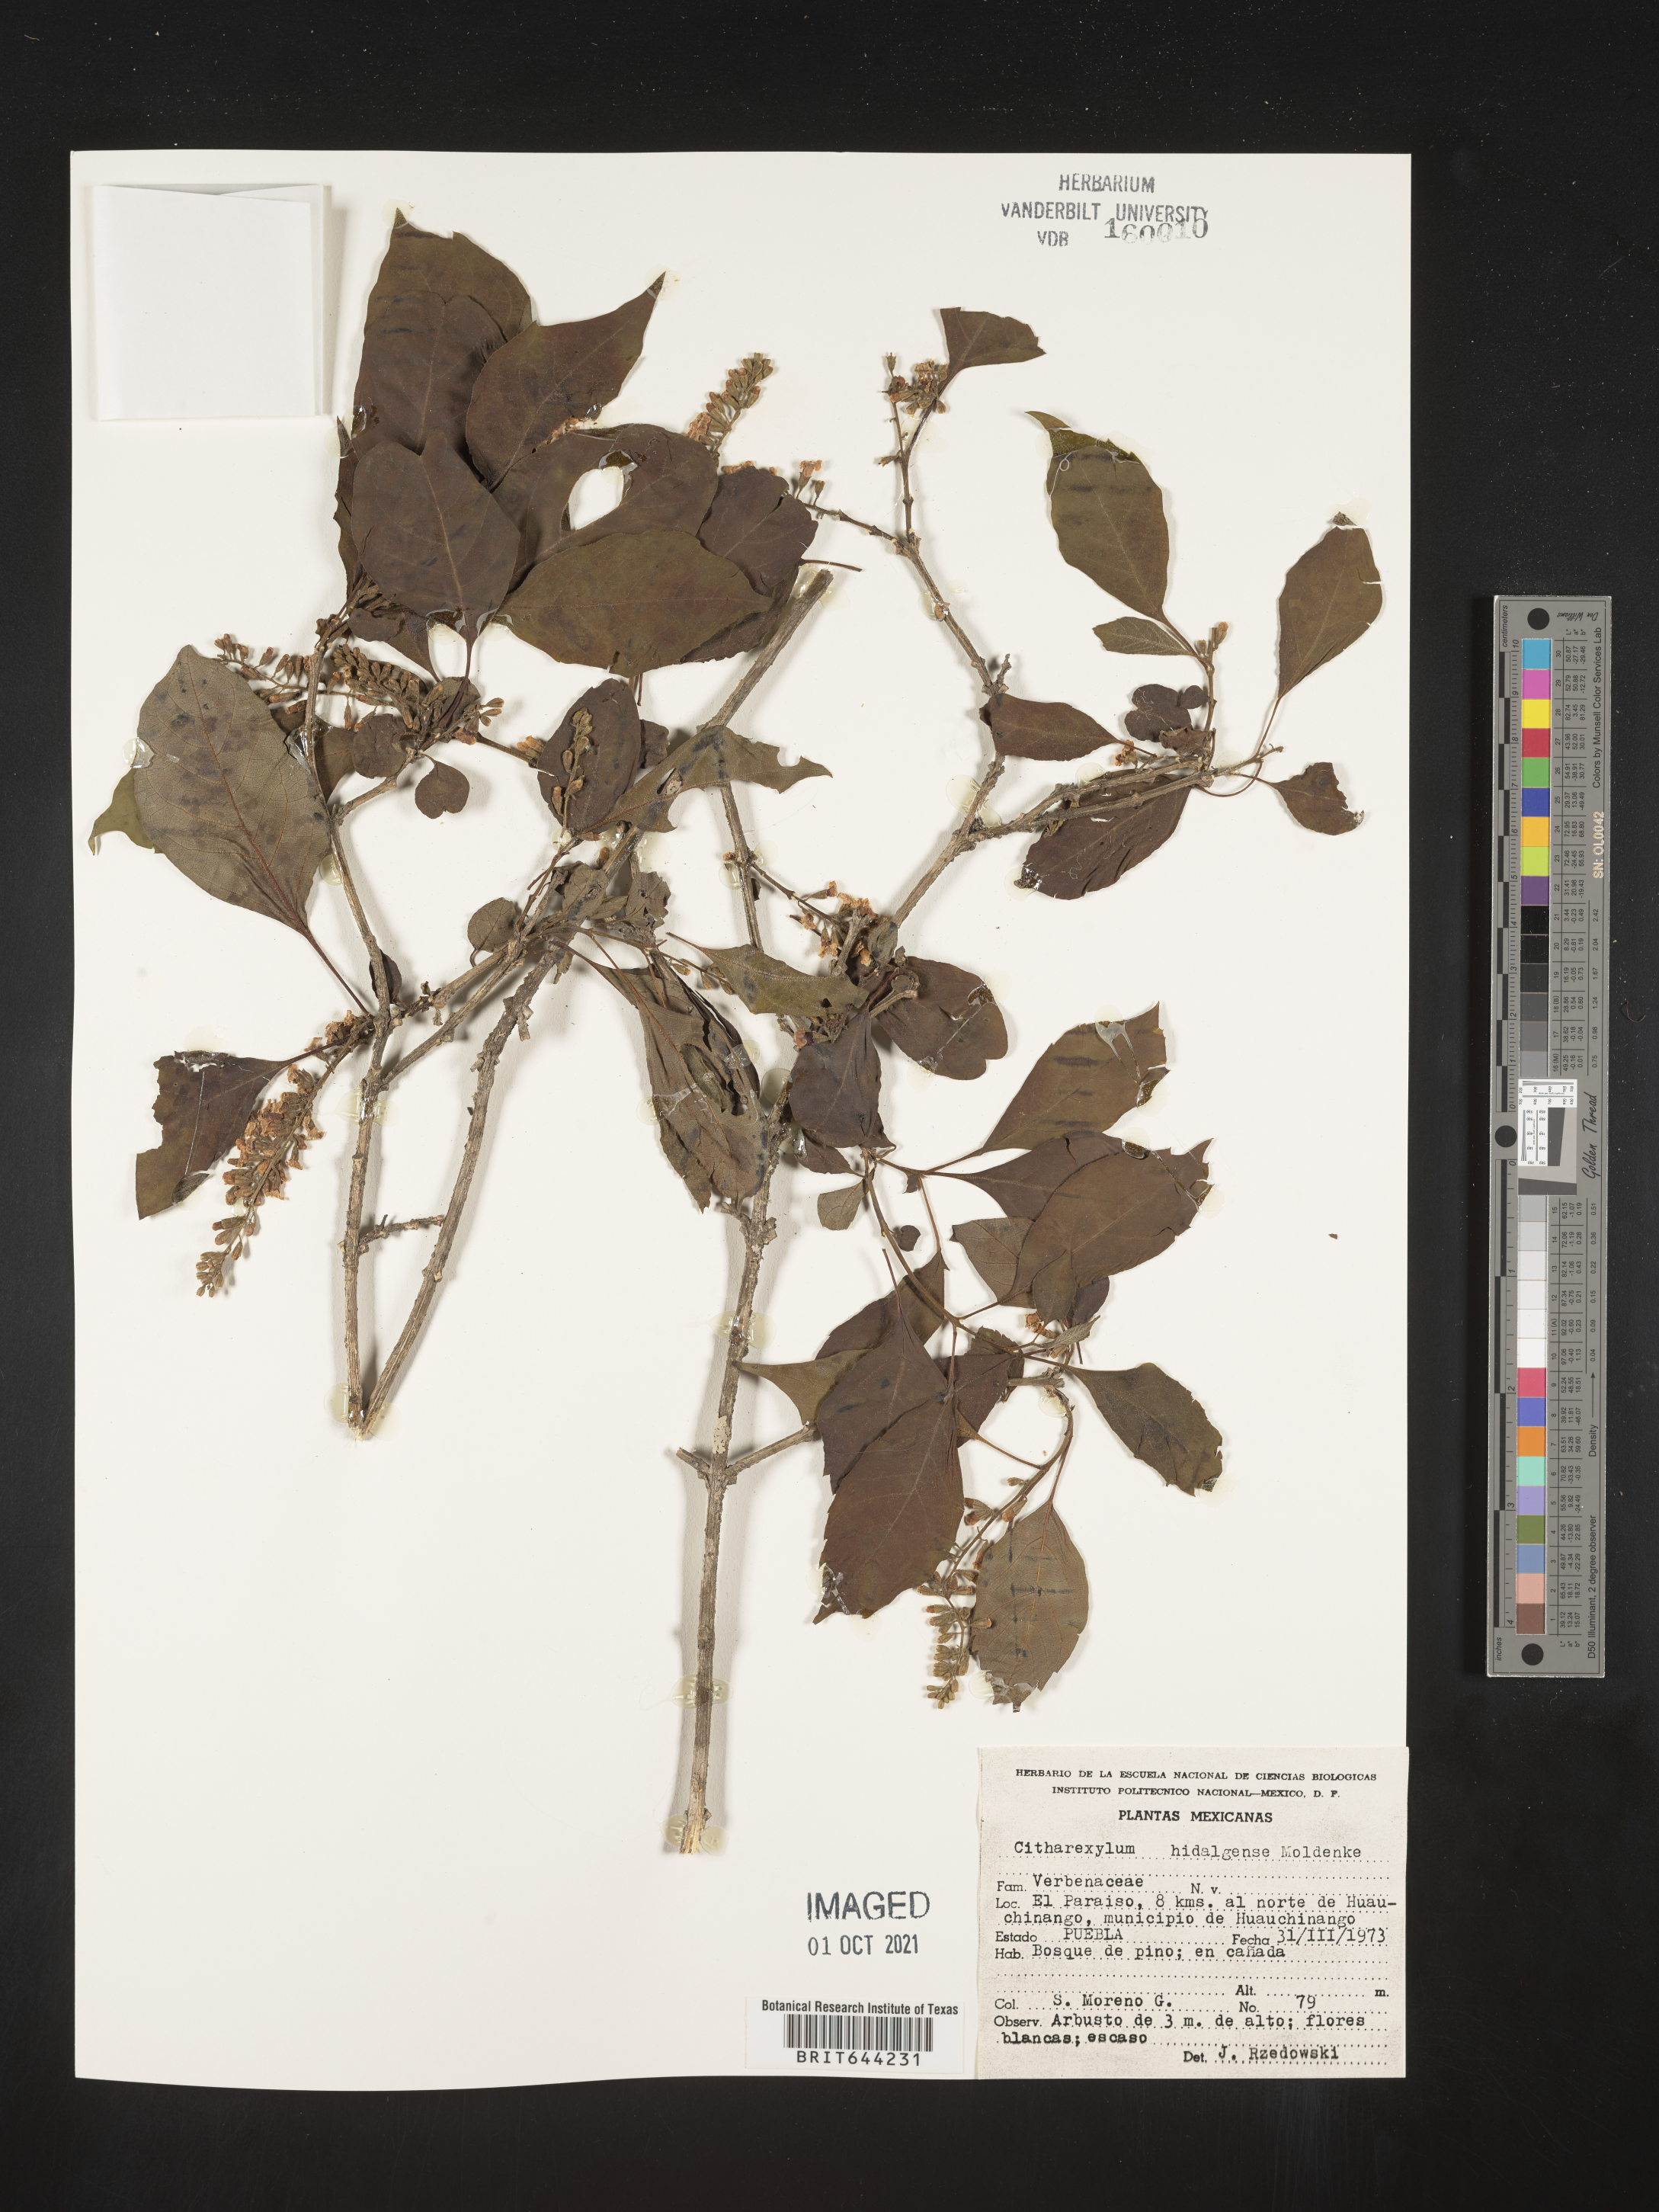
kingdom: Plantae
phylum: Tracheophyta
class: Magnoliopsida
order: Lamiales
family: Verbenaceae
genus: Citharexylum
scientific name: Citharexylum
